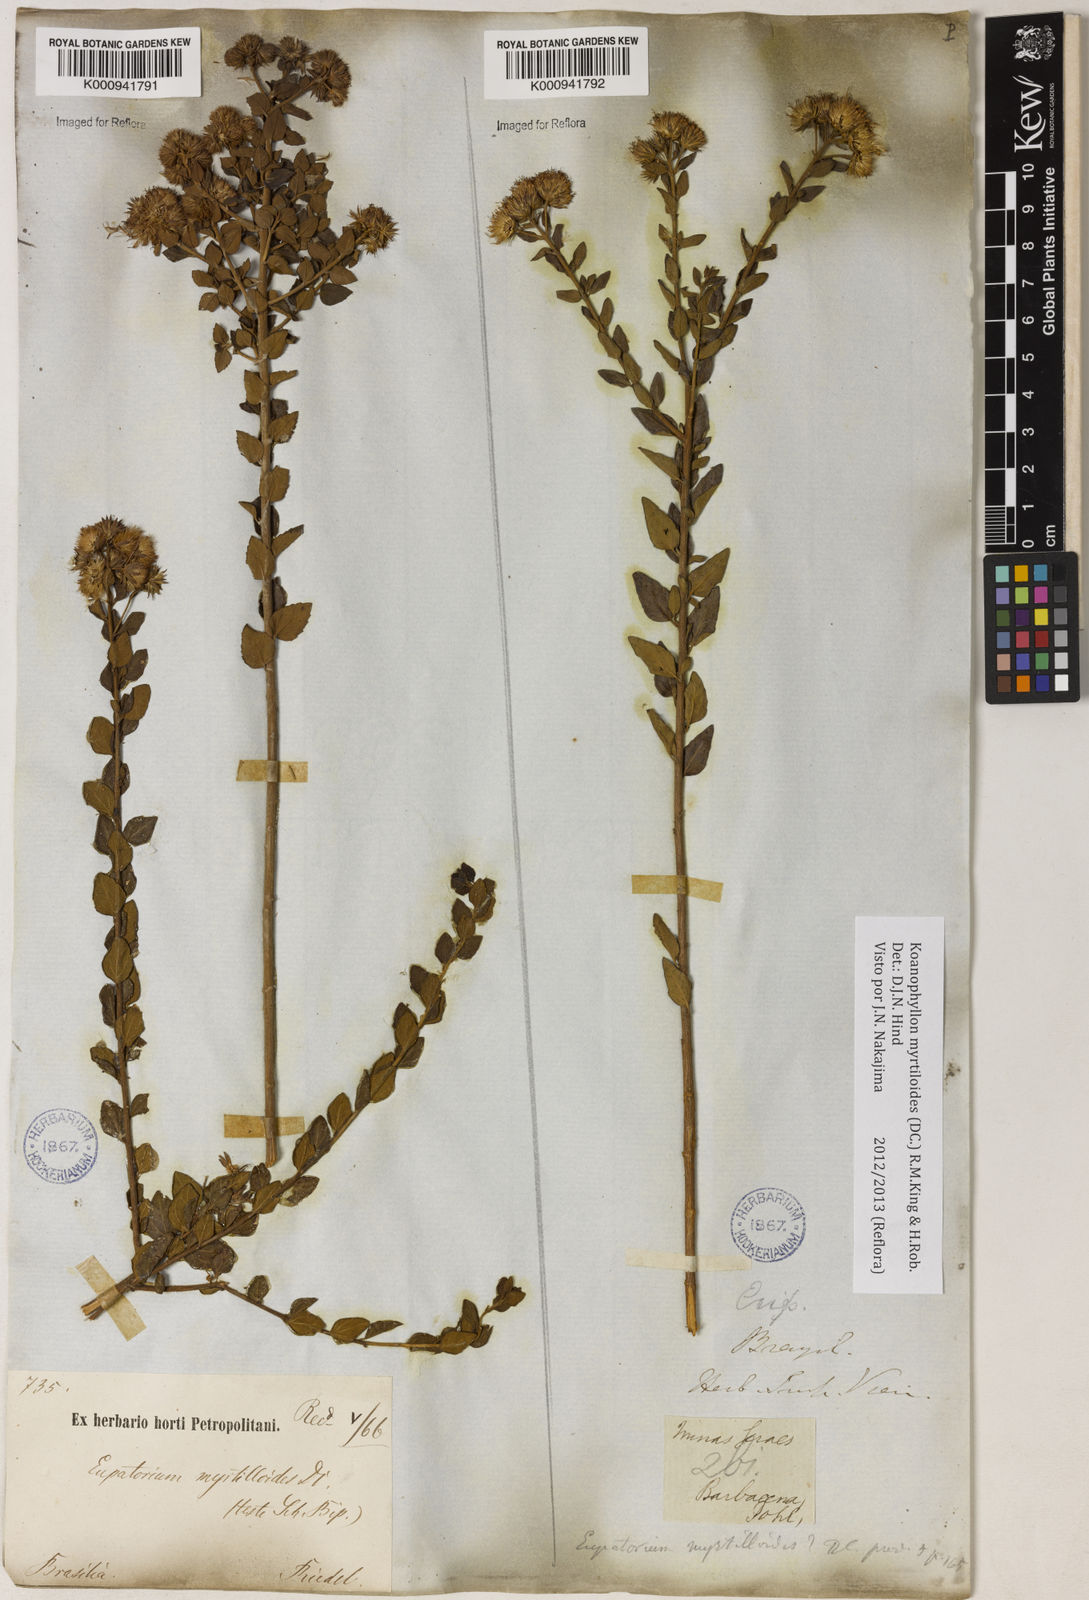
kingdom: Plantae
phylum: Tracheophyta
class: Magnoliopsida
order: Asterales
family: Asteraceae
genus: Koanophyllon
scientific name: Koanophyllon myrtilloides
